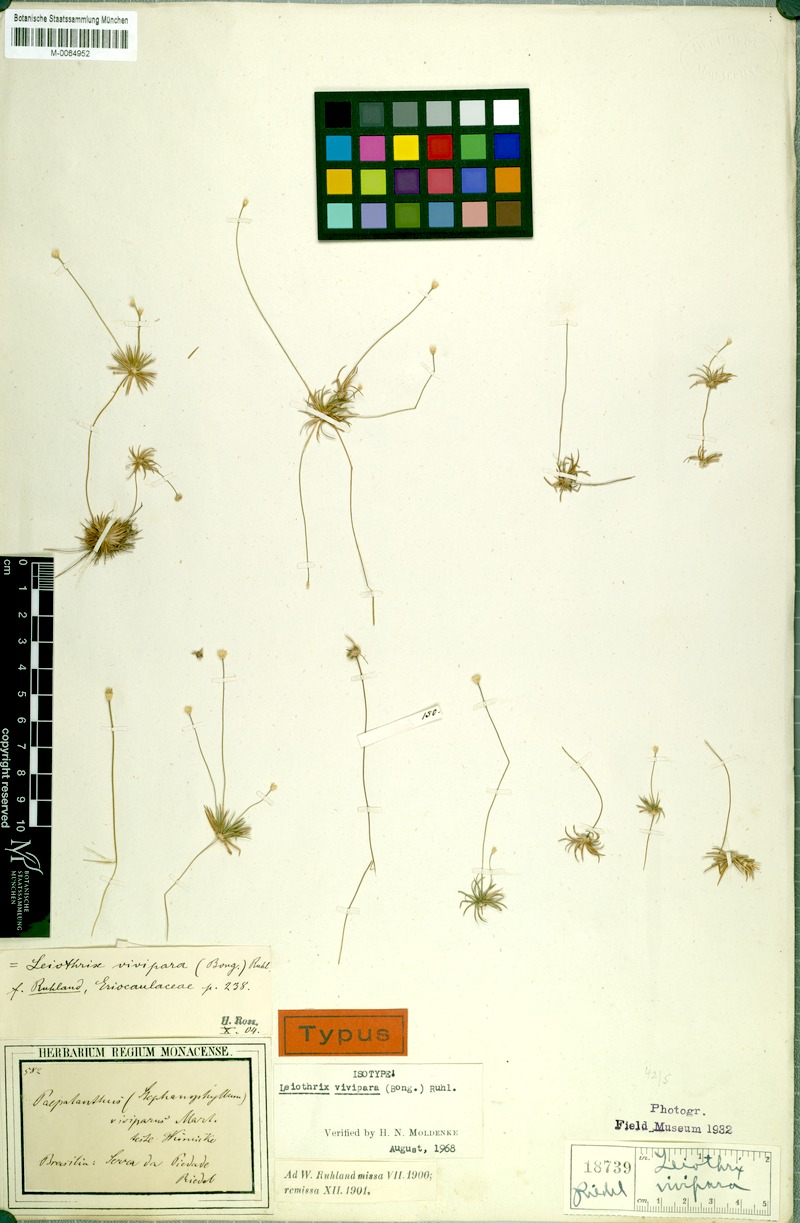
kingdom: Plantae
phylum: Tracheophyta
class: Liliopsida
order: Poales
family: Eriocaulaceae
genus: Leiothrix
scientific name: Leiothrix vivipara
